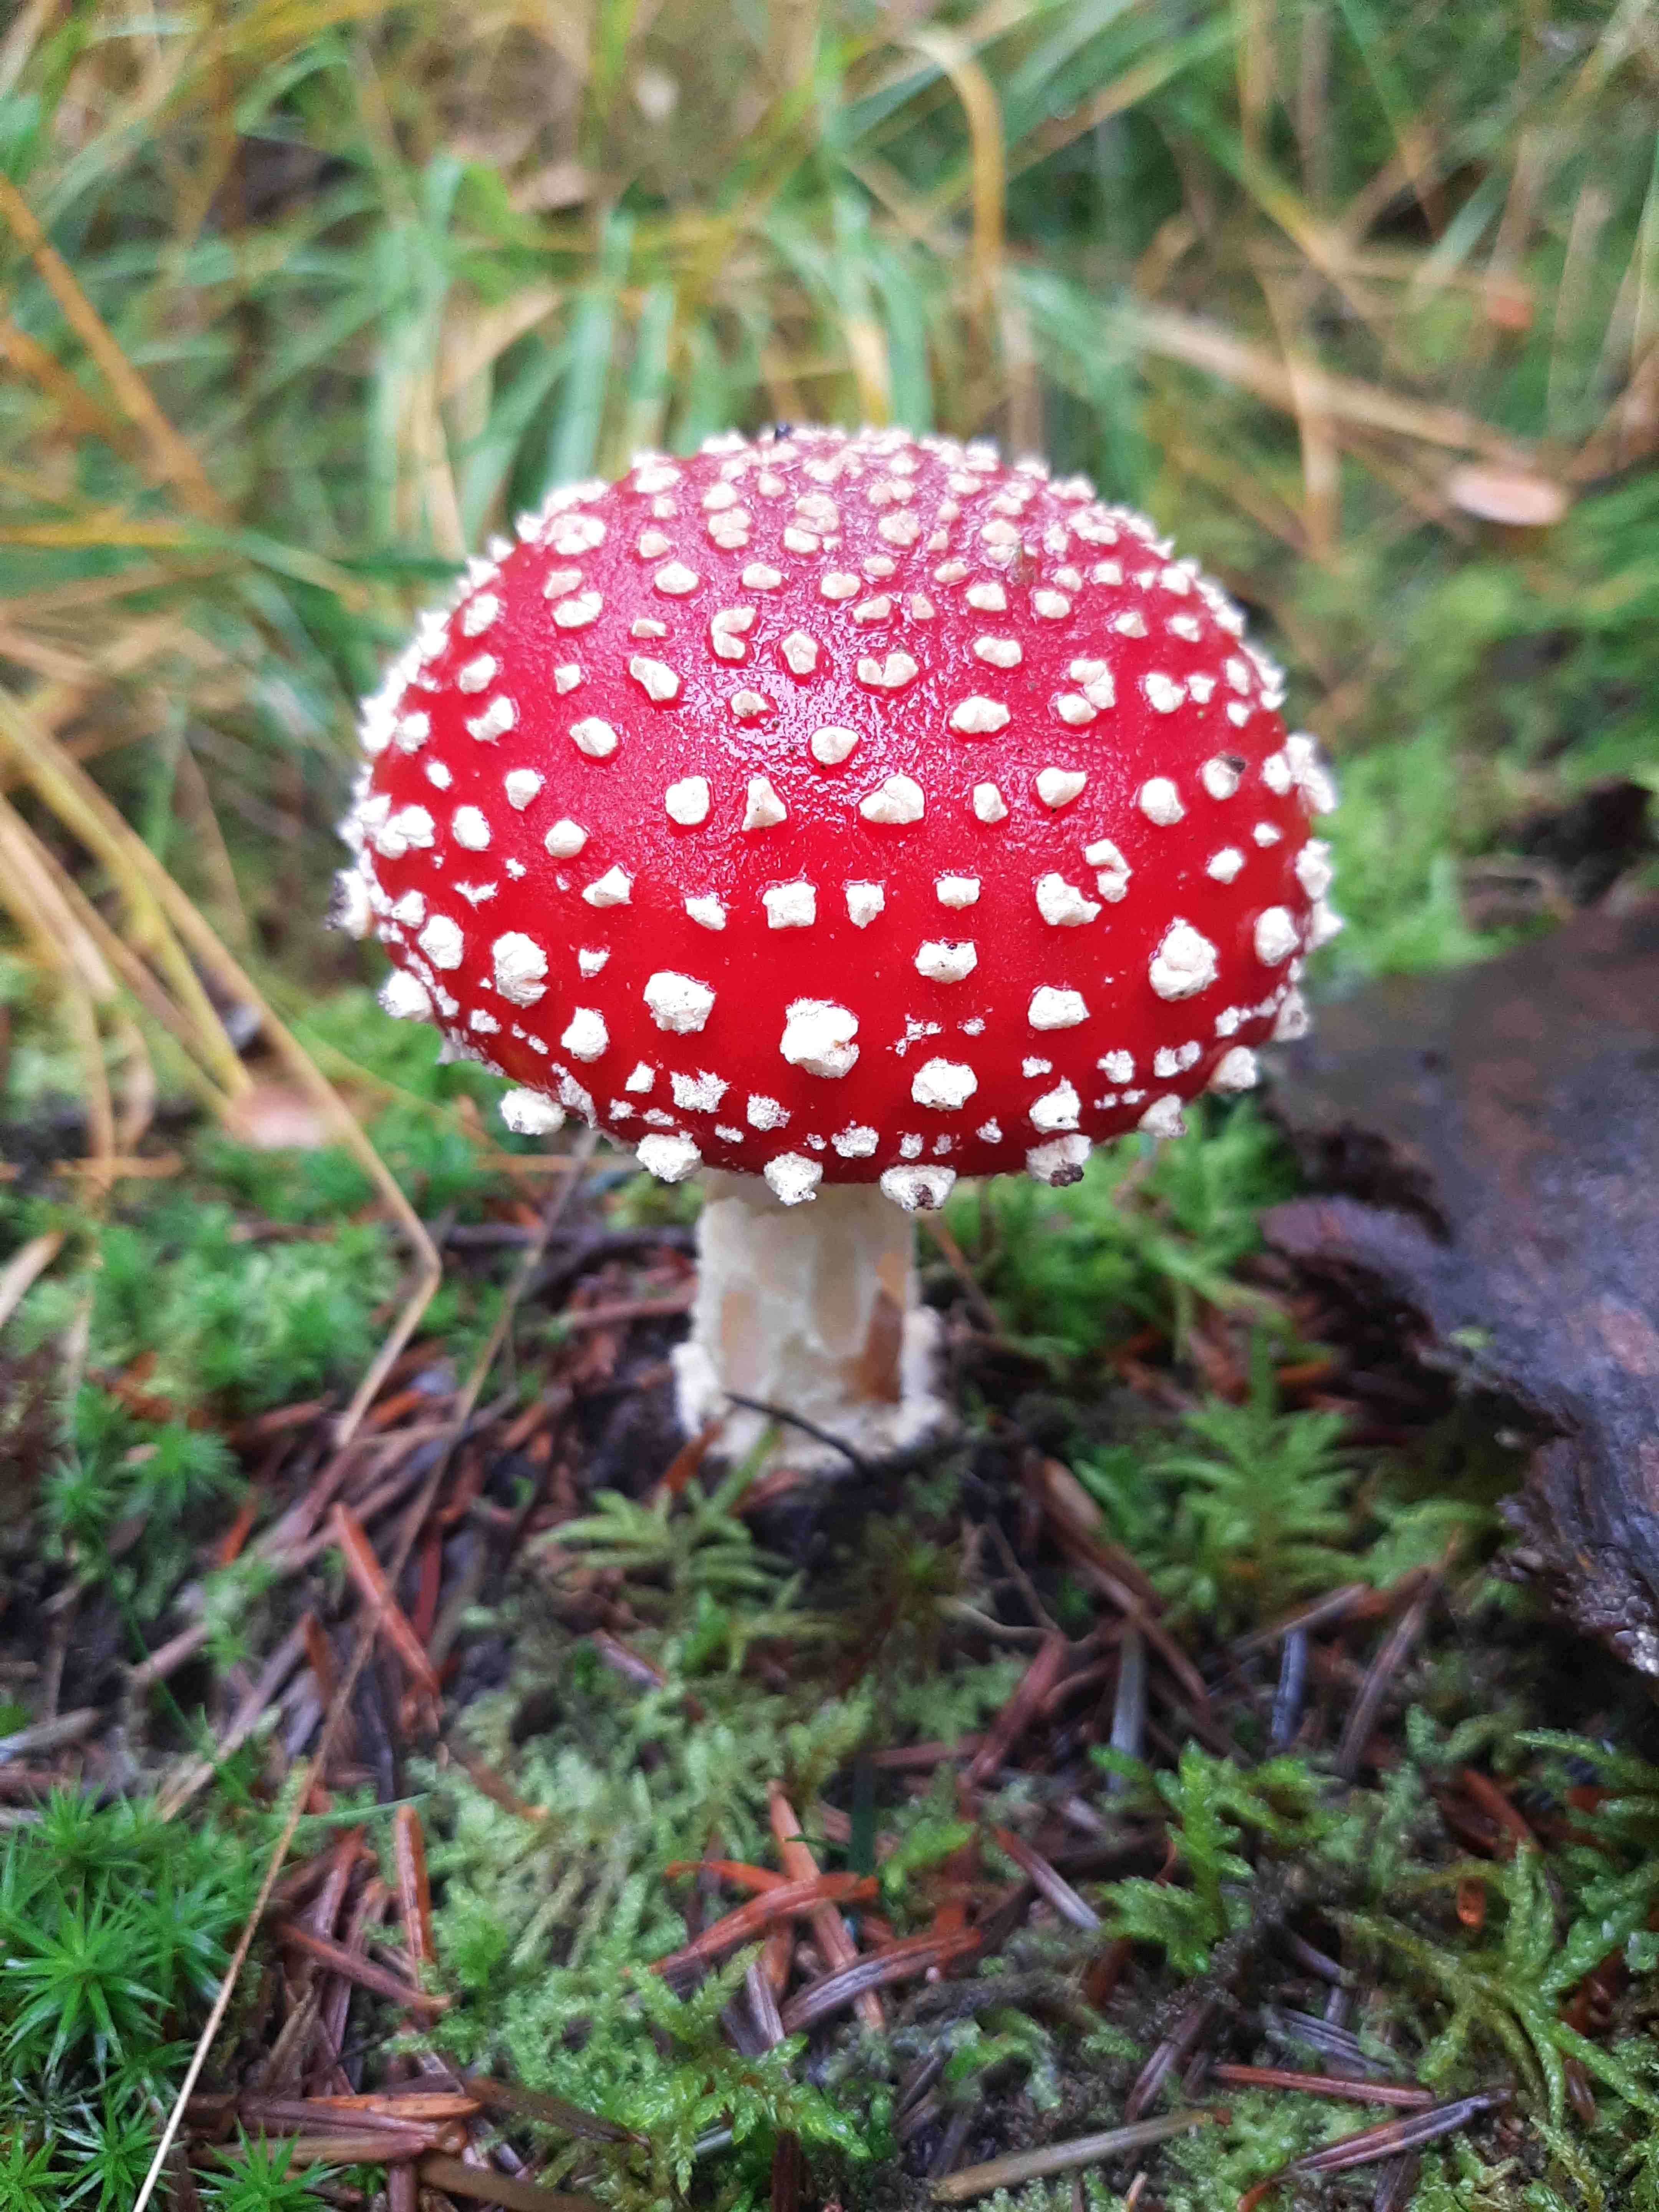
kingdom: Fungi
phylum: Basidiomycota
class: Agaricomycetes
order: Agaricales
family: Amanitaceae
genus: Amanita
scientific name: Amanita muscaria
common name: rød fluesvamp
